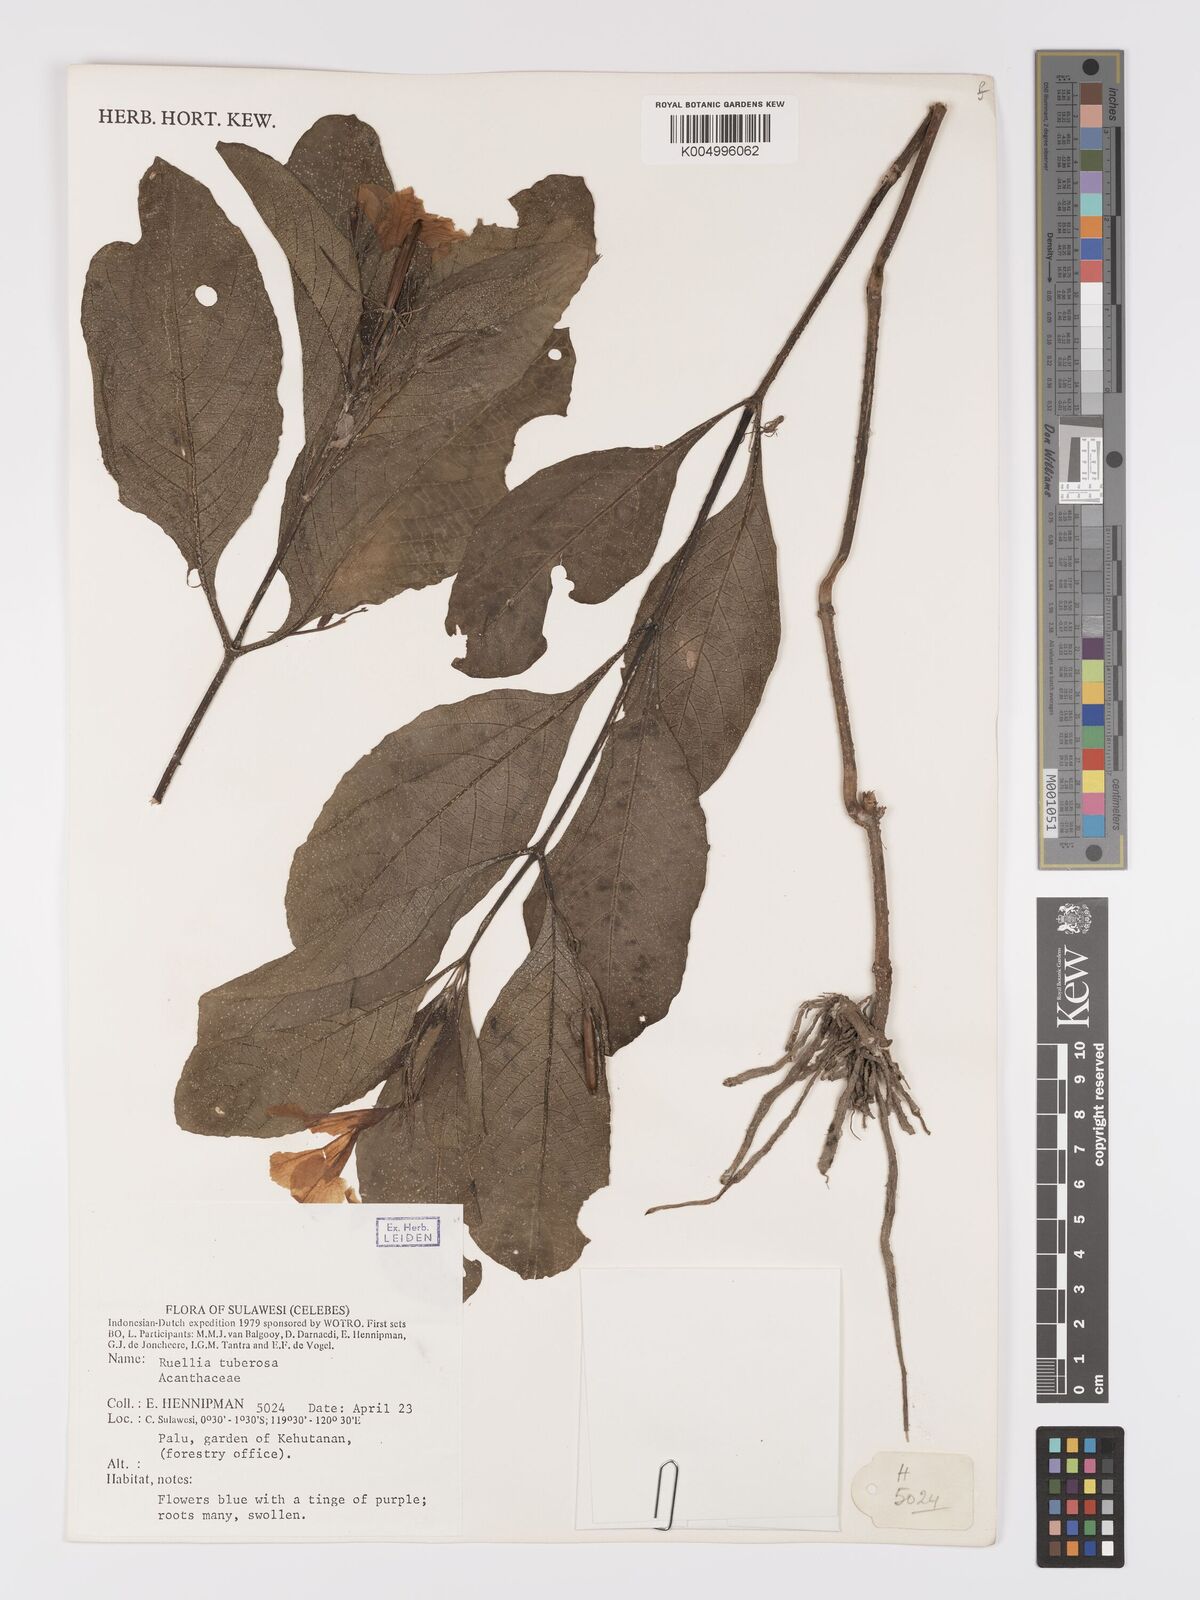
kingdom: Plantae
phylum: Tracheophyta
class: Magnoliopsida
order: Lamiales
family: Acanthaceae
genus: Ruellia
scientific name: Ruellia tuberosa
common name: Devil's bit
